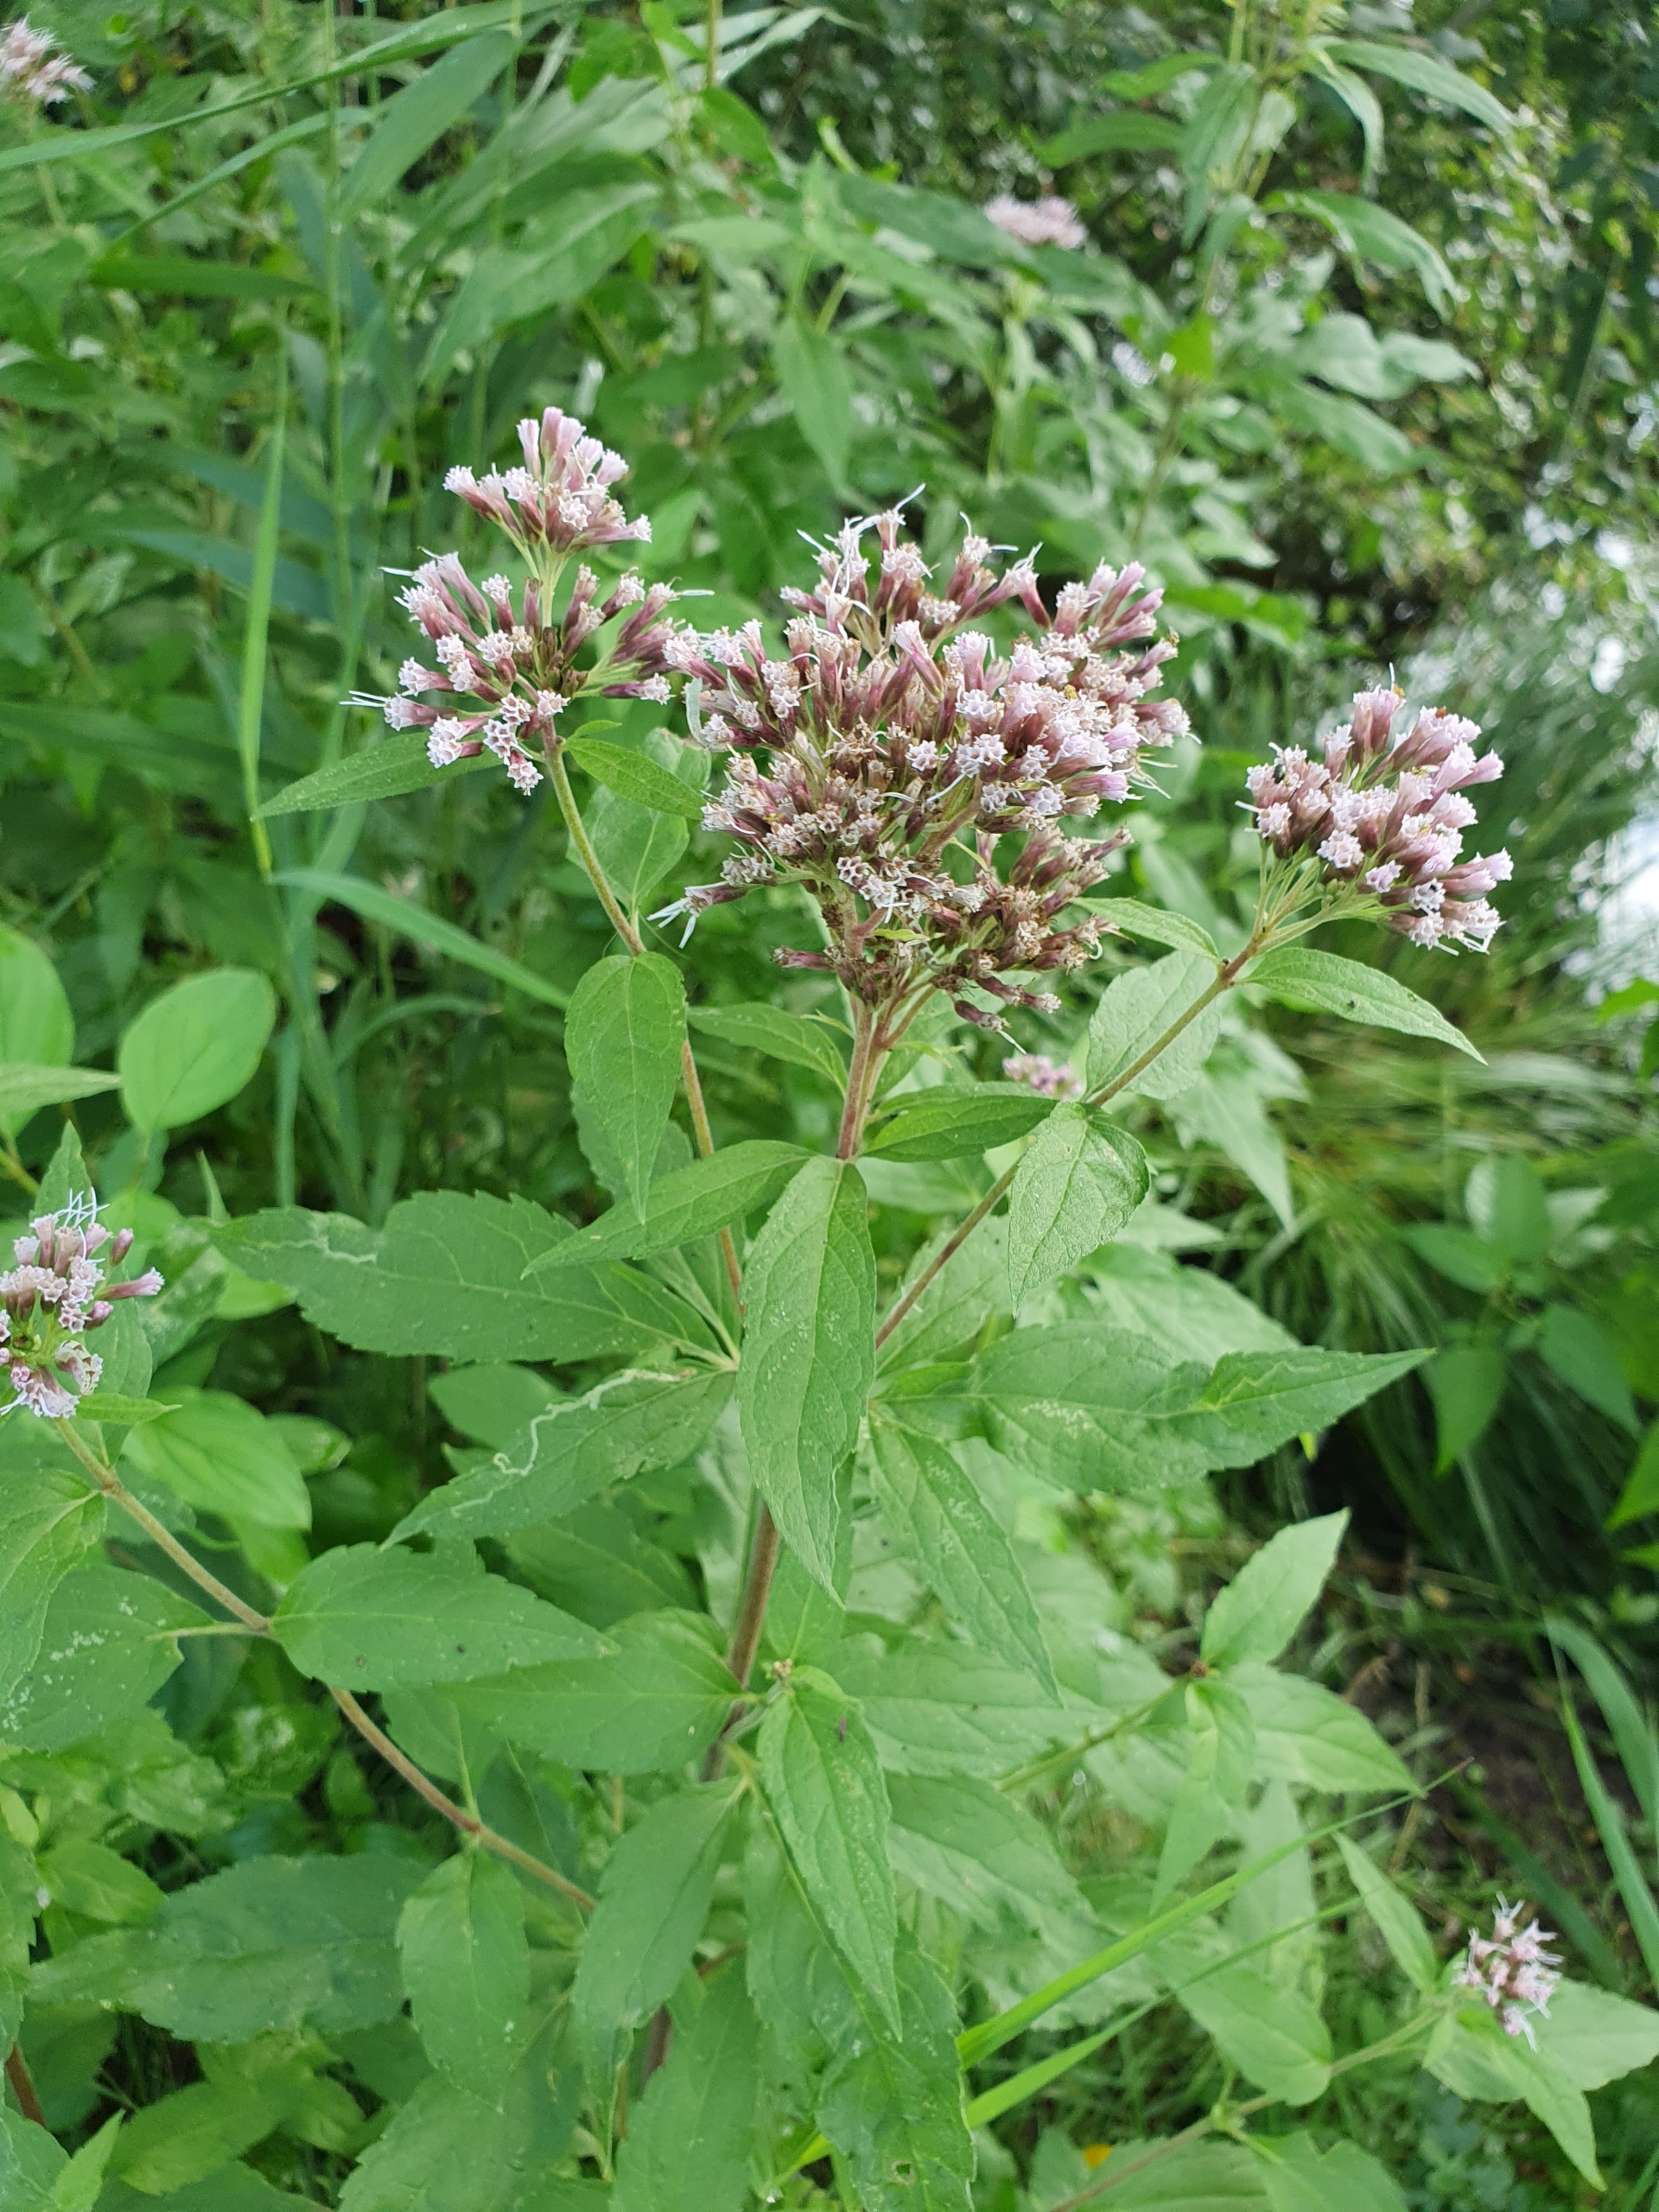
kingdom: Plantae
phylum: Tracheophyta
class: Magnoliopsida
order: Asterales
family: Asteraceae
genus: Eupatorium
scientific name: Eupatorium cannabinum
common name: Hjortetrøst
